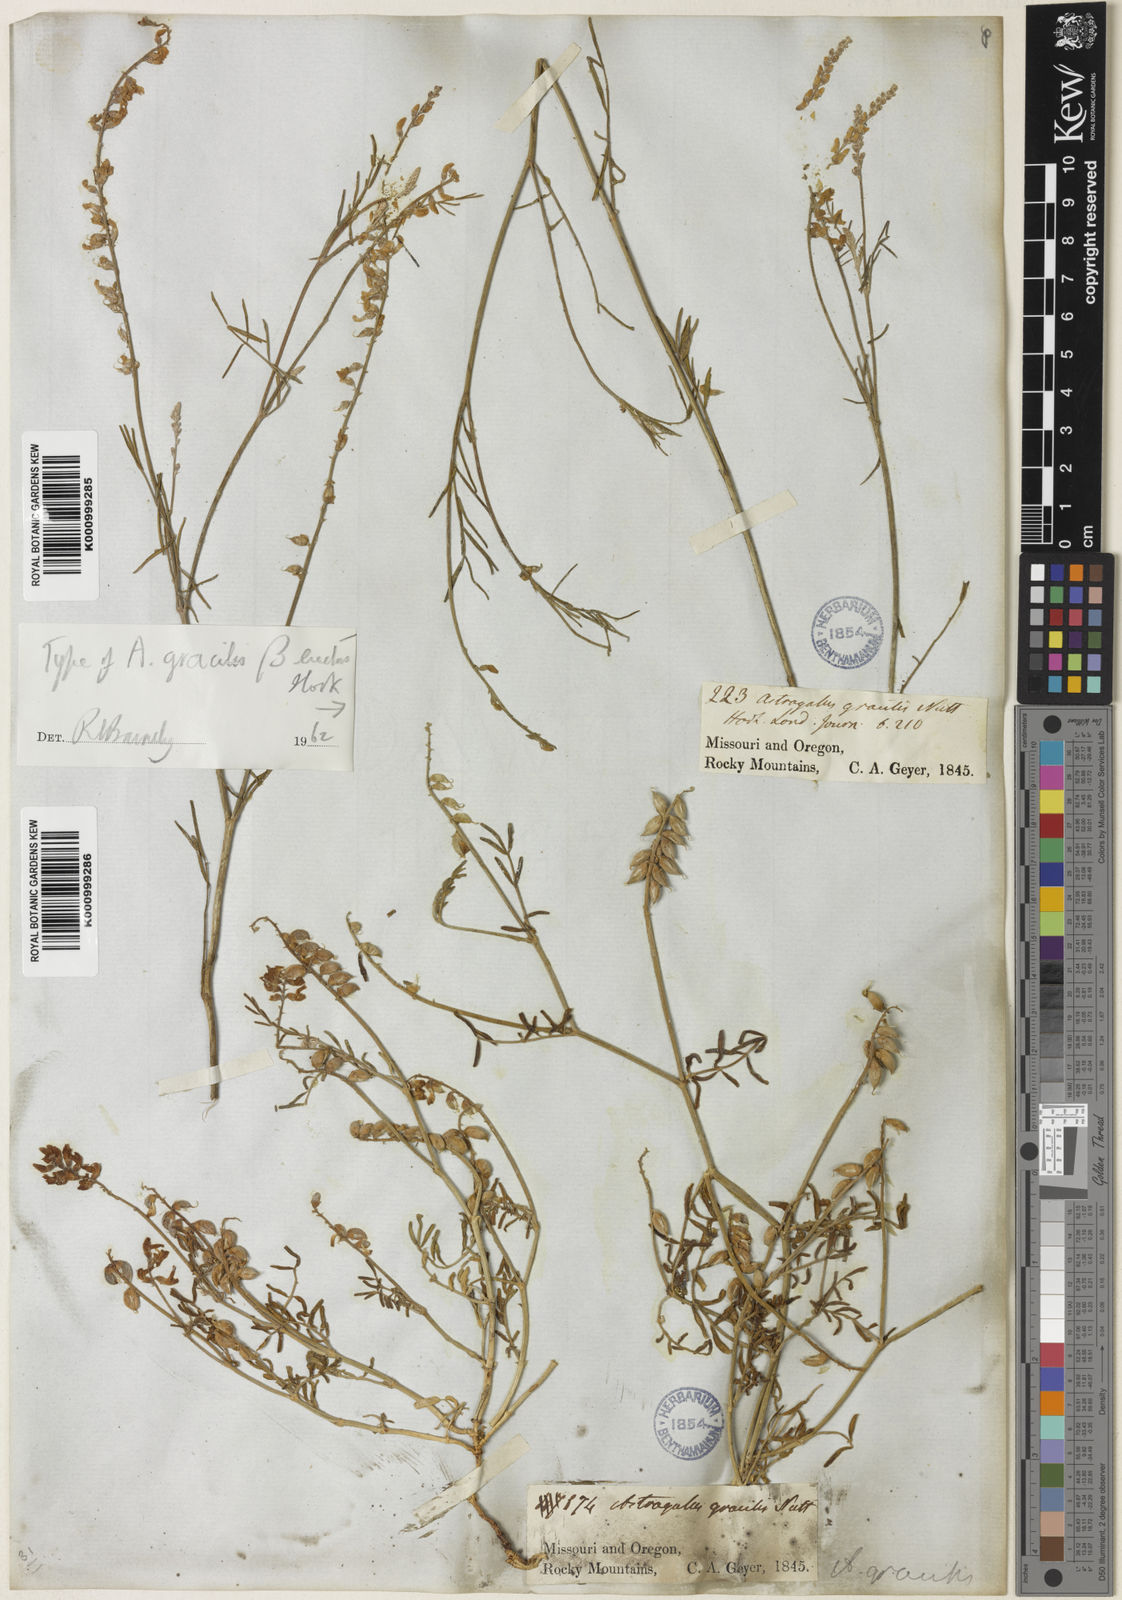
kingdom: Plantae
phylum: Tracheophyta
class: Magnoliopsida
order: Fabales
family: Fabaceae
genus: Astragalus
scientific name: Astragalus gracilis
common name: Slender milk-vetch
